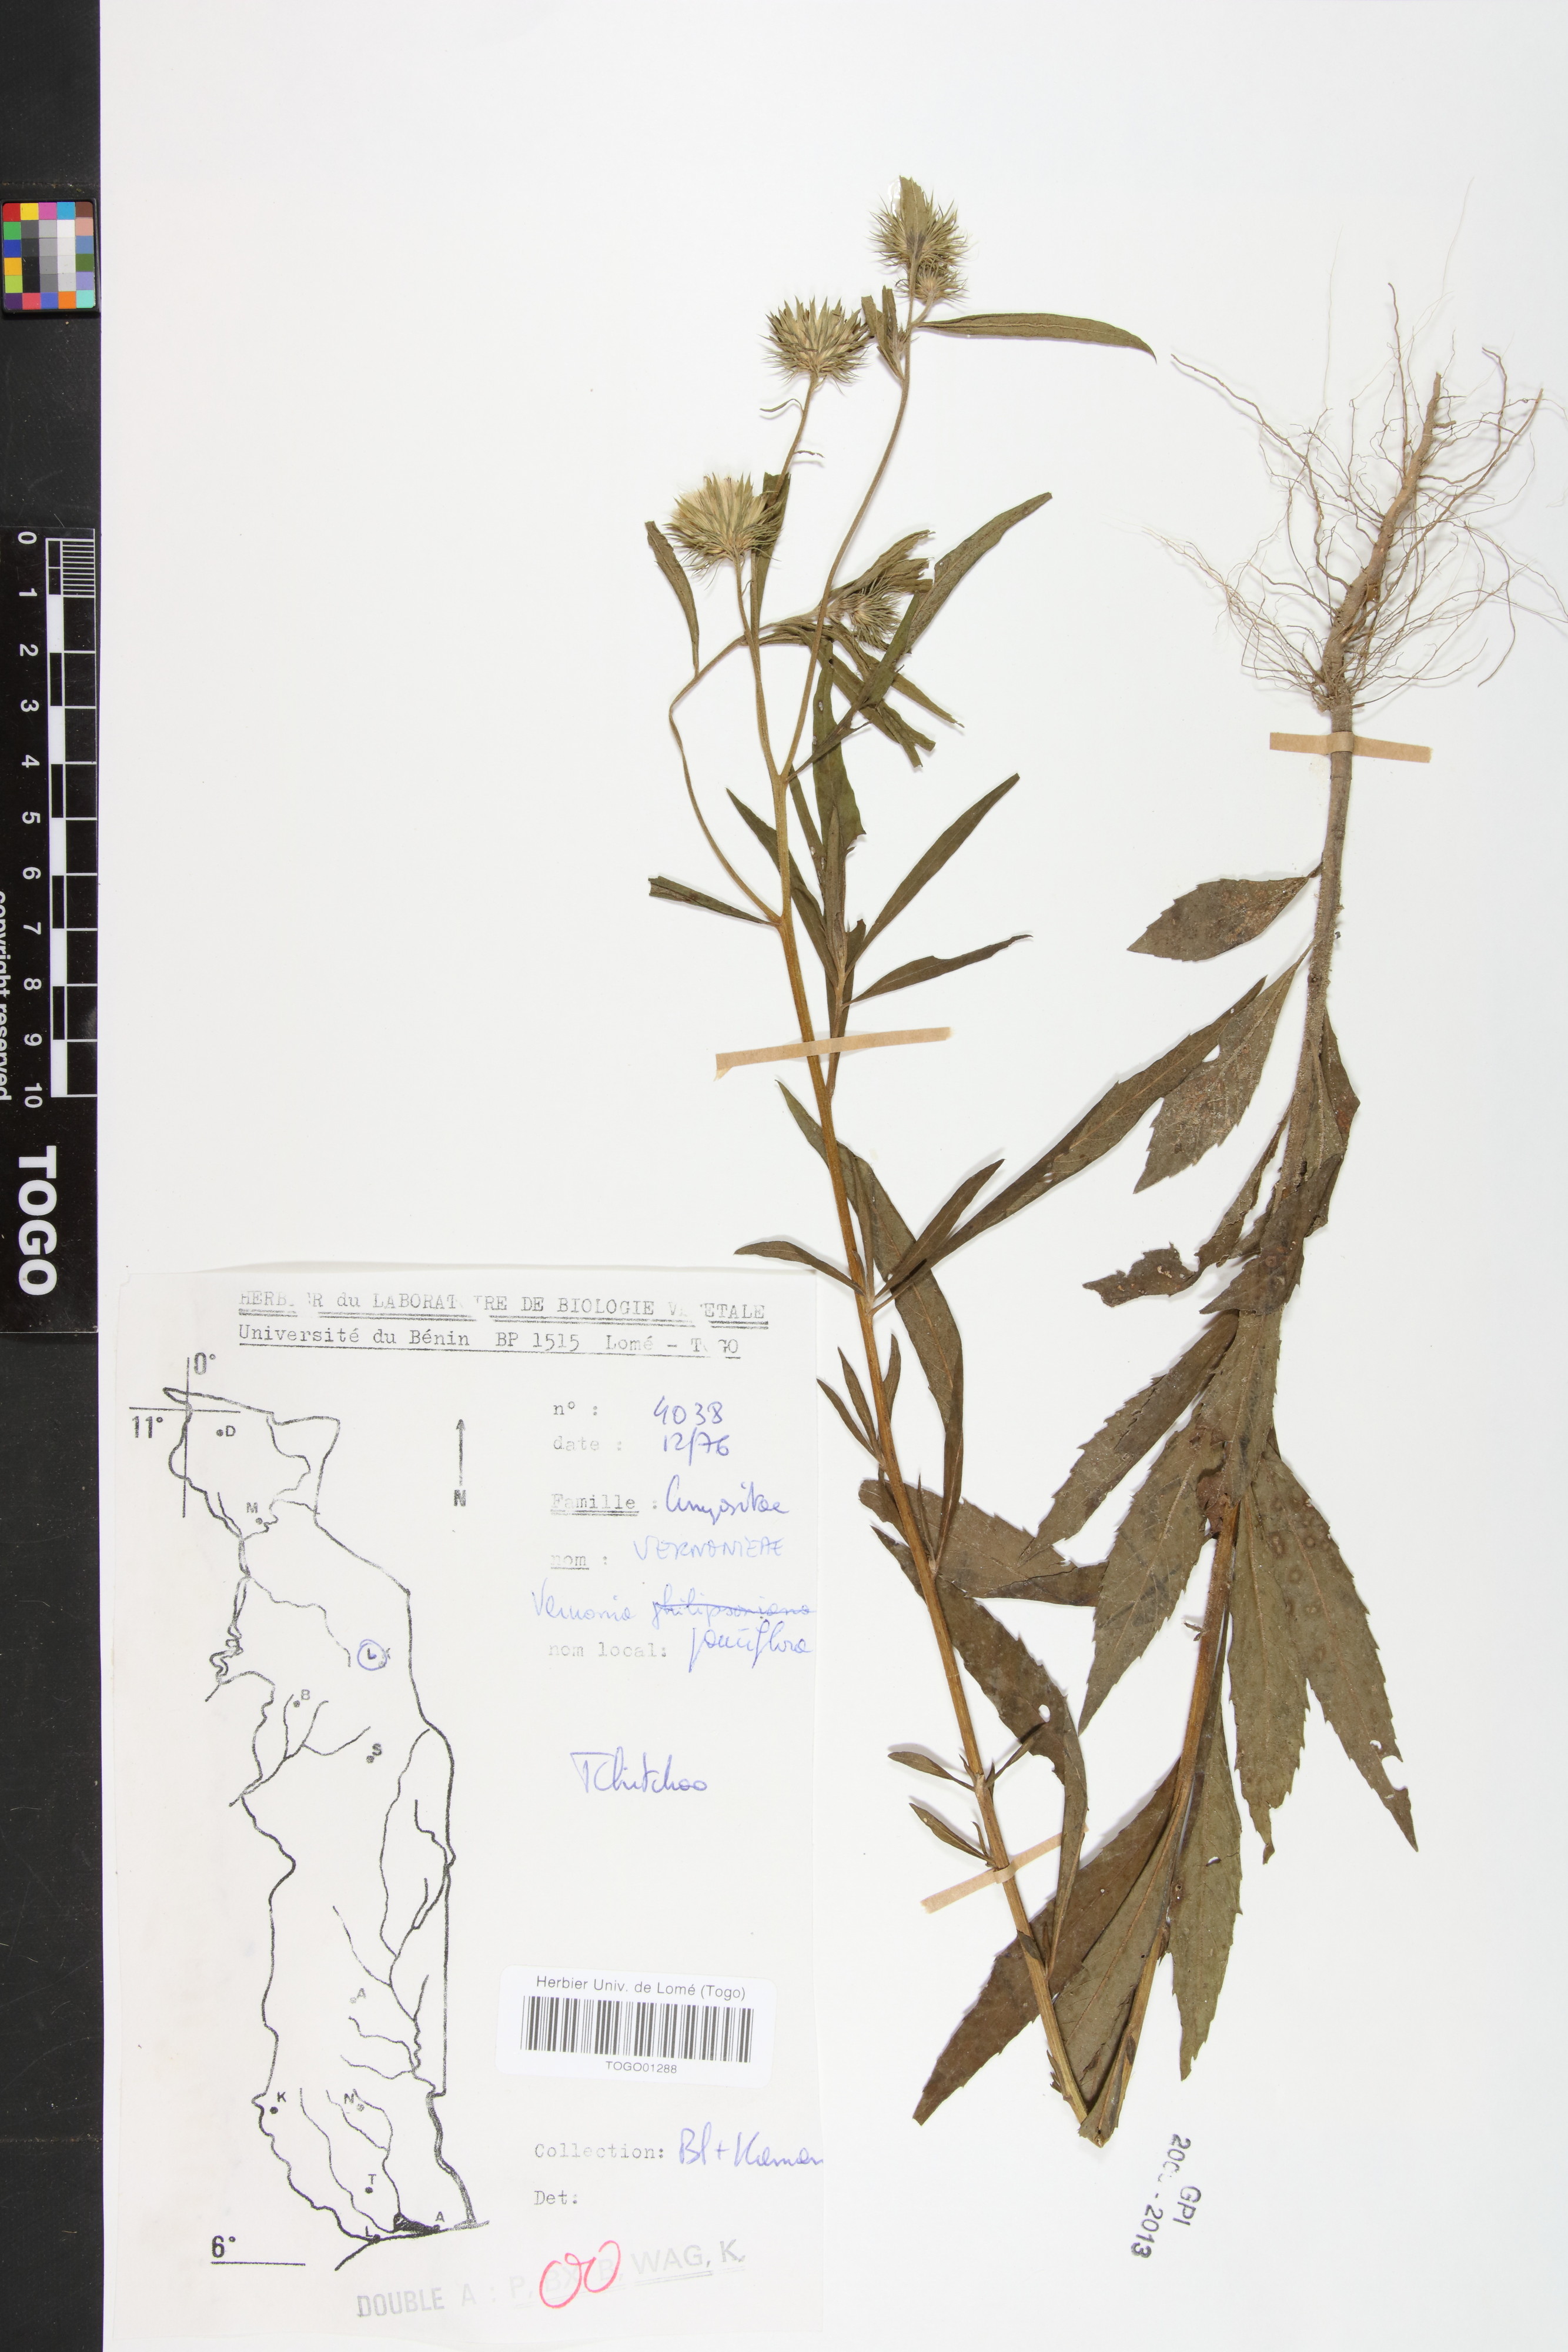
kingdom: Plantae
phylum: Tracheophyta
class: Magnoliopsida
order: Asterales
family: Asteraceae
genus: Vernonia
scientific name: Vernonia galamensis
